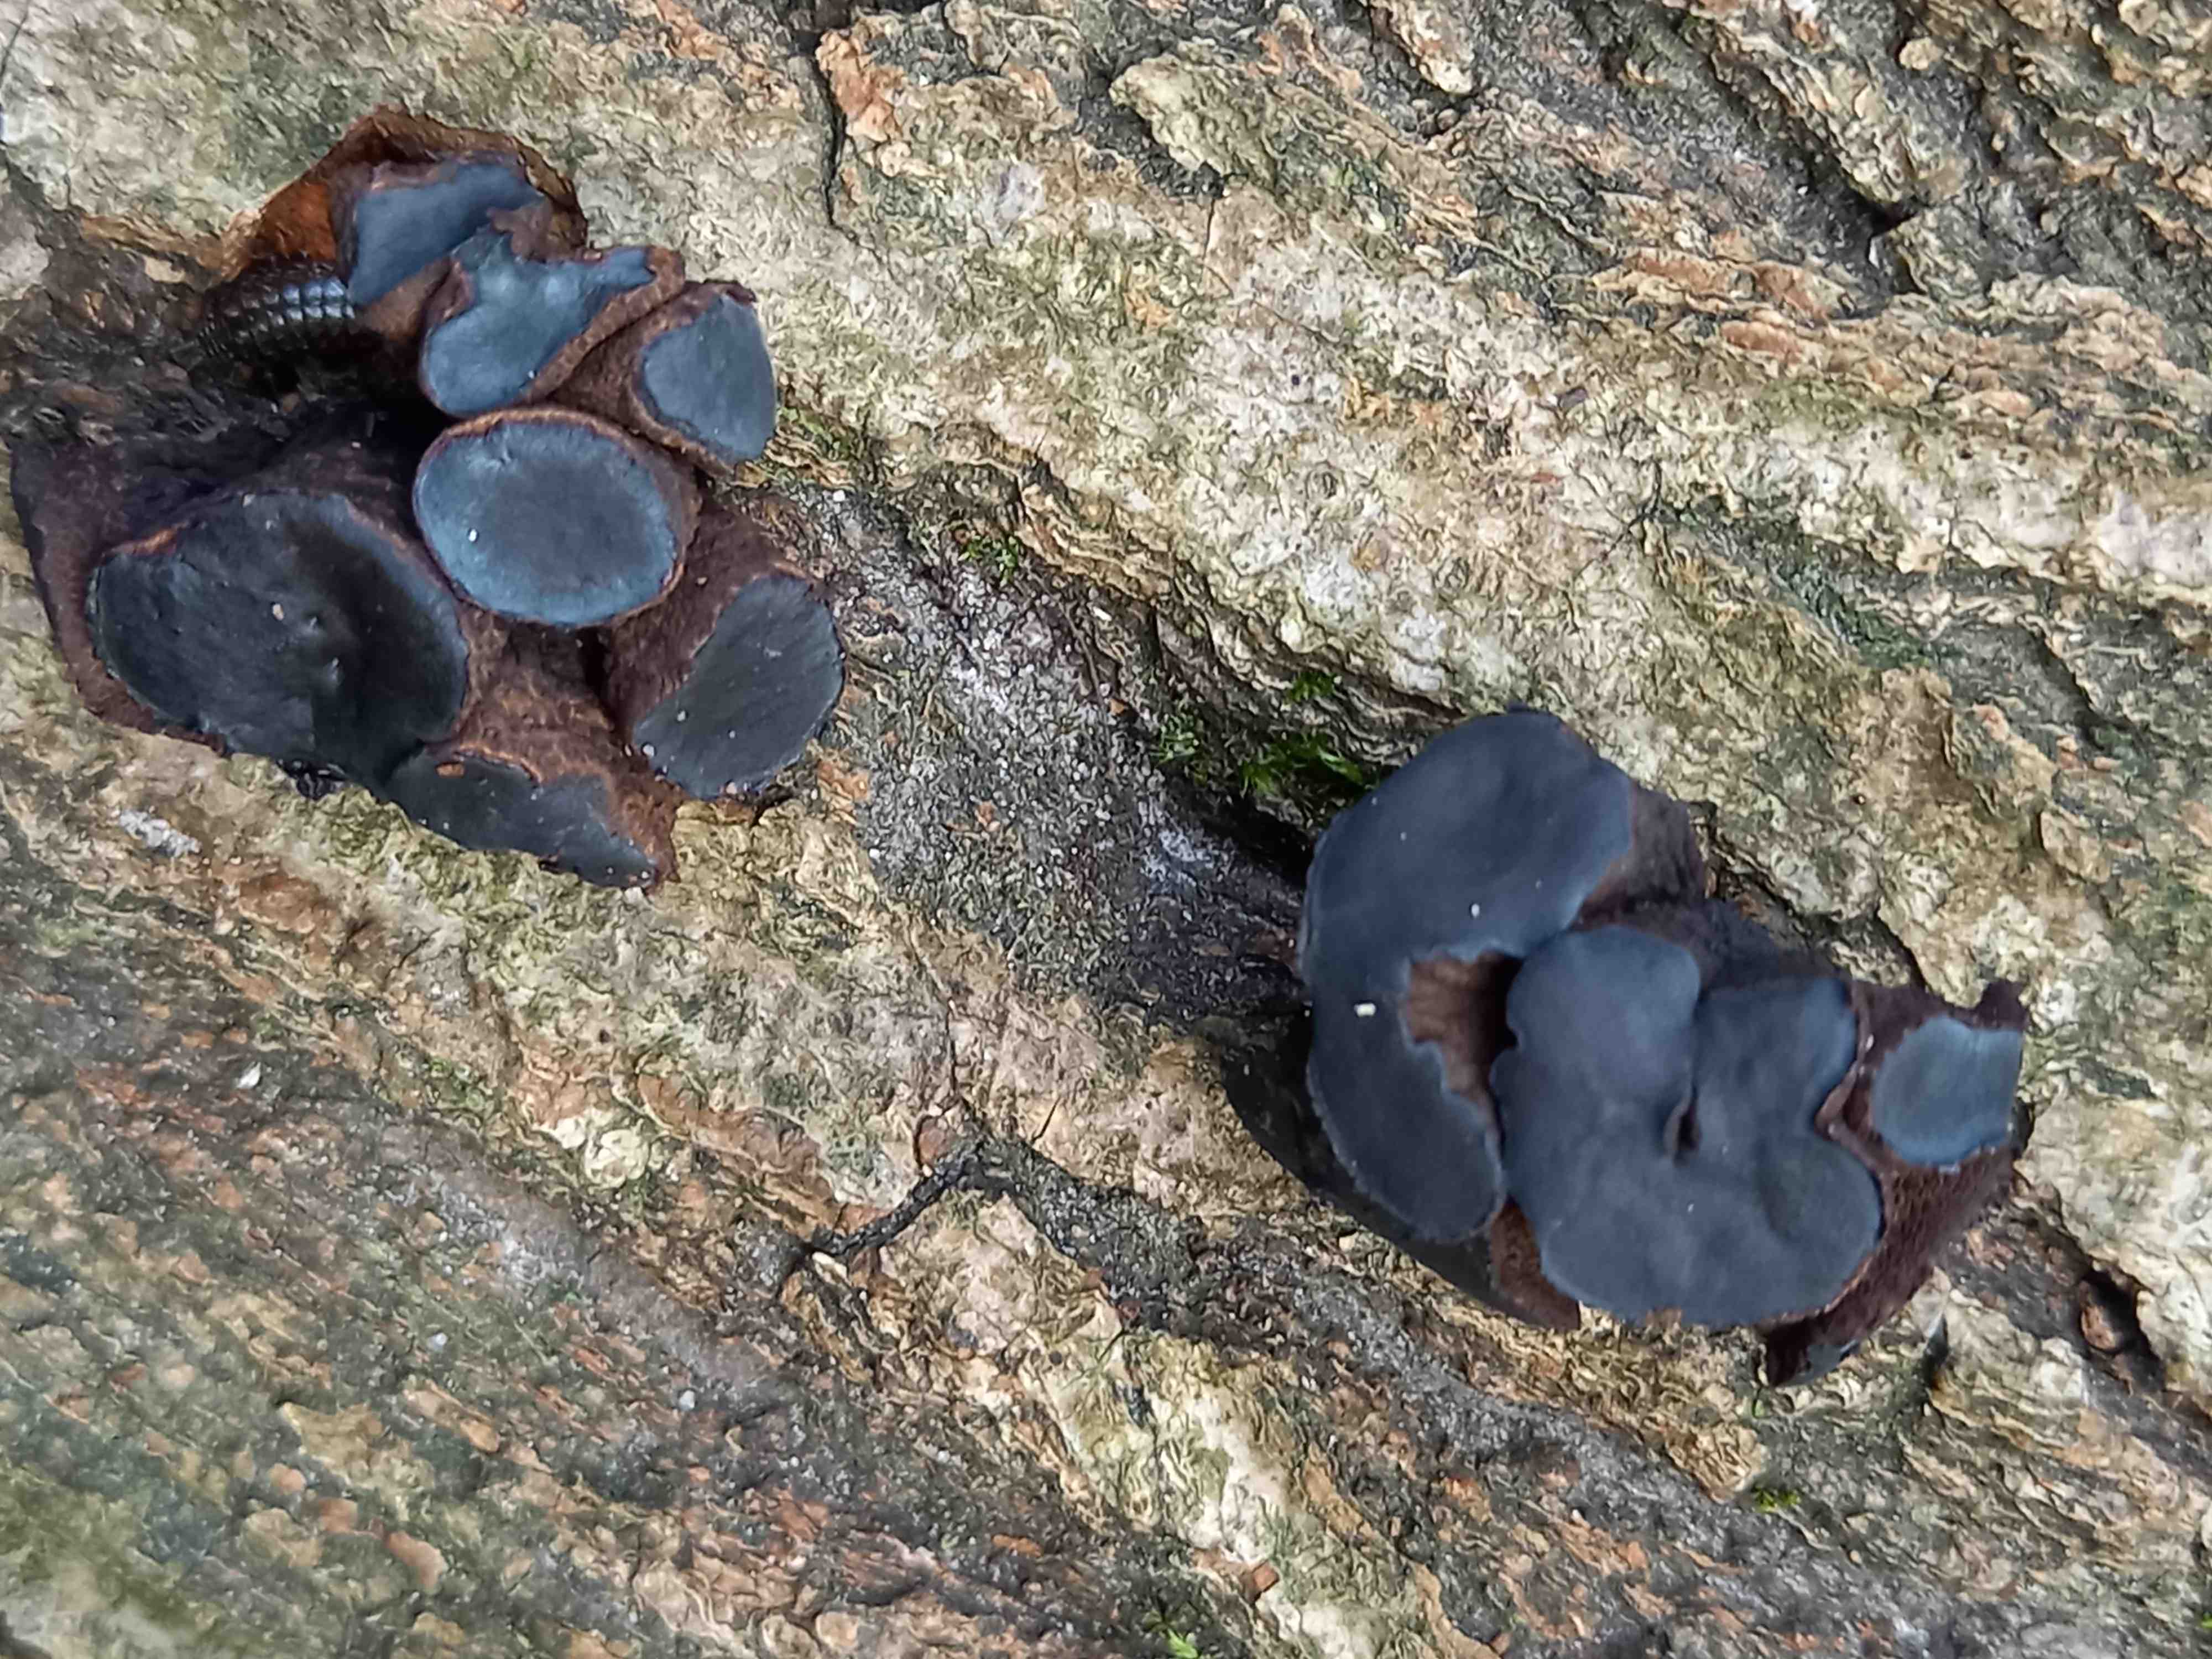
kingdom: Fungi
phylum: Ascomycota
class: Leotiomycetes
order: Phacidiales
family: Phacidiaceae
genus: Bulgaria
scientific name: Bulgaria inquinans
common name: afsmittende topsvamp
